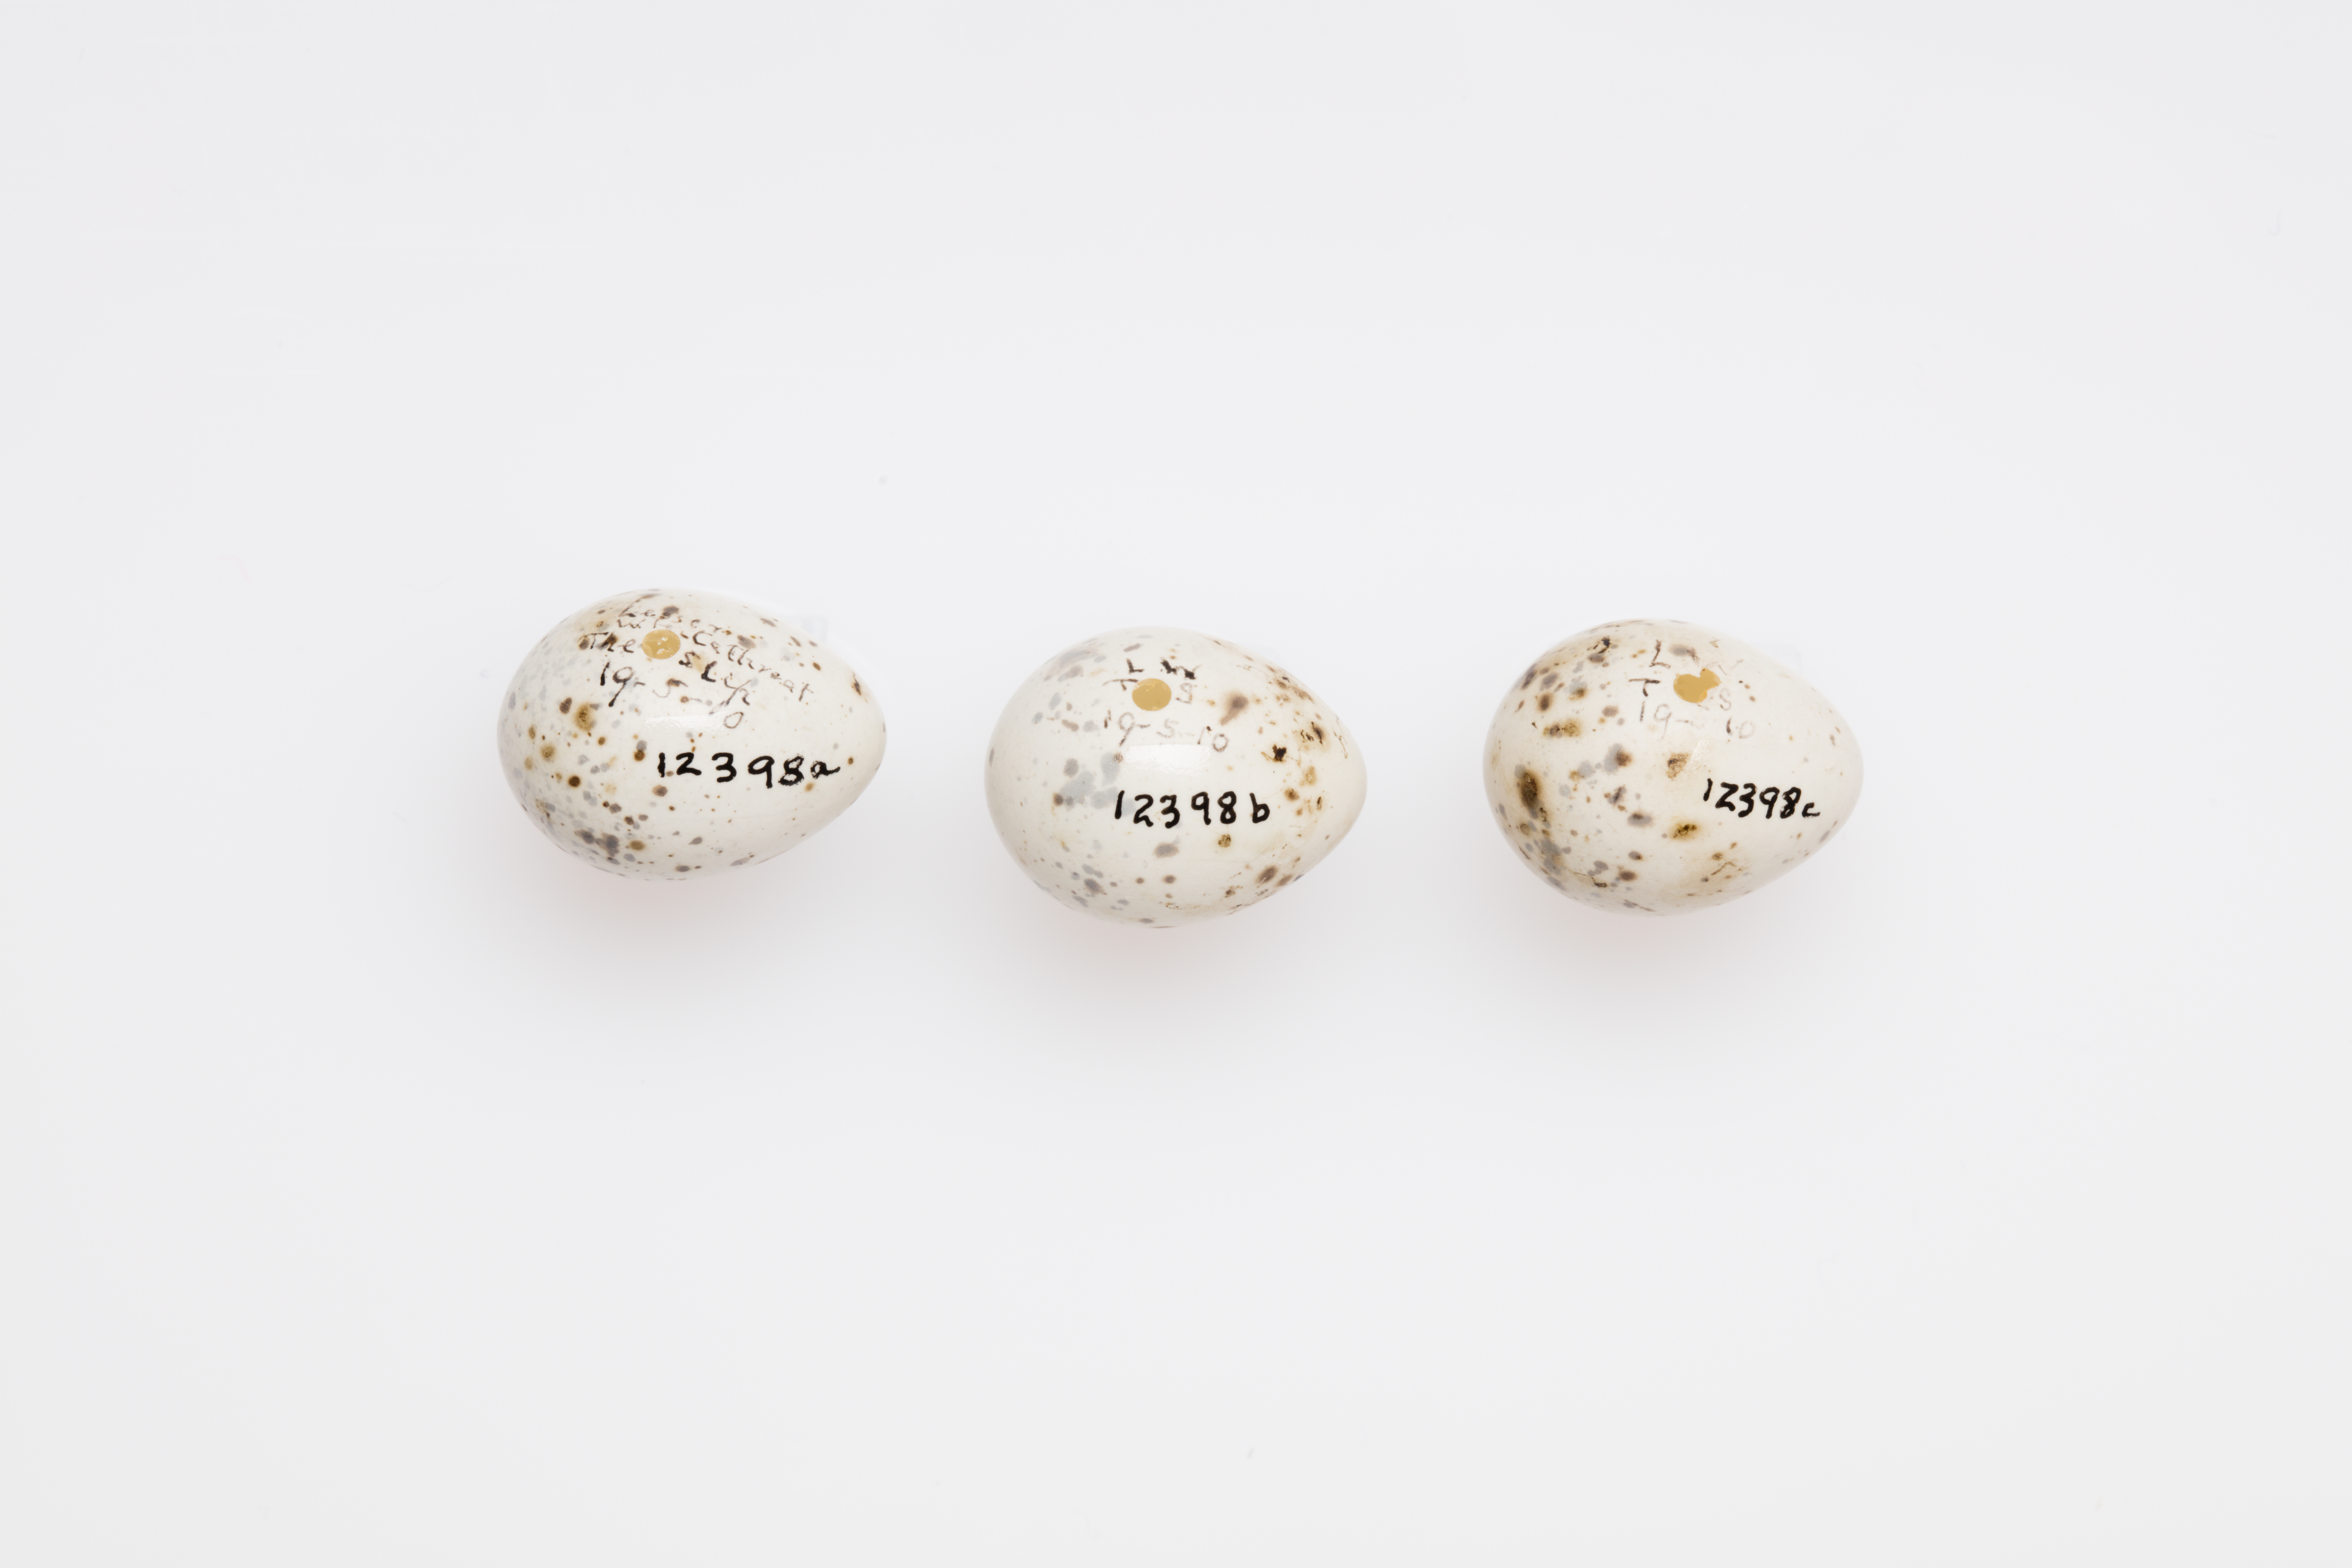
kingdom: Animalia
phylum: Chordata
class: Aves
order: Passeriformes
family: Sylviidae
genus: Sylvia
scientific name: Sylvia curruca
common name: Lesser whitethroat
